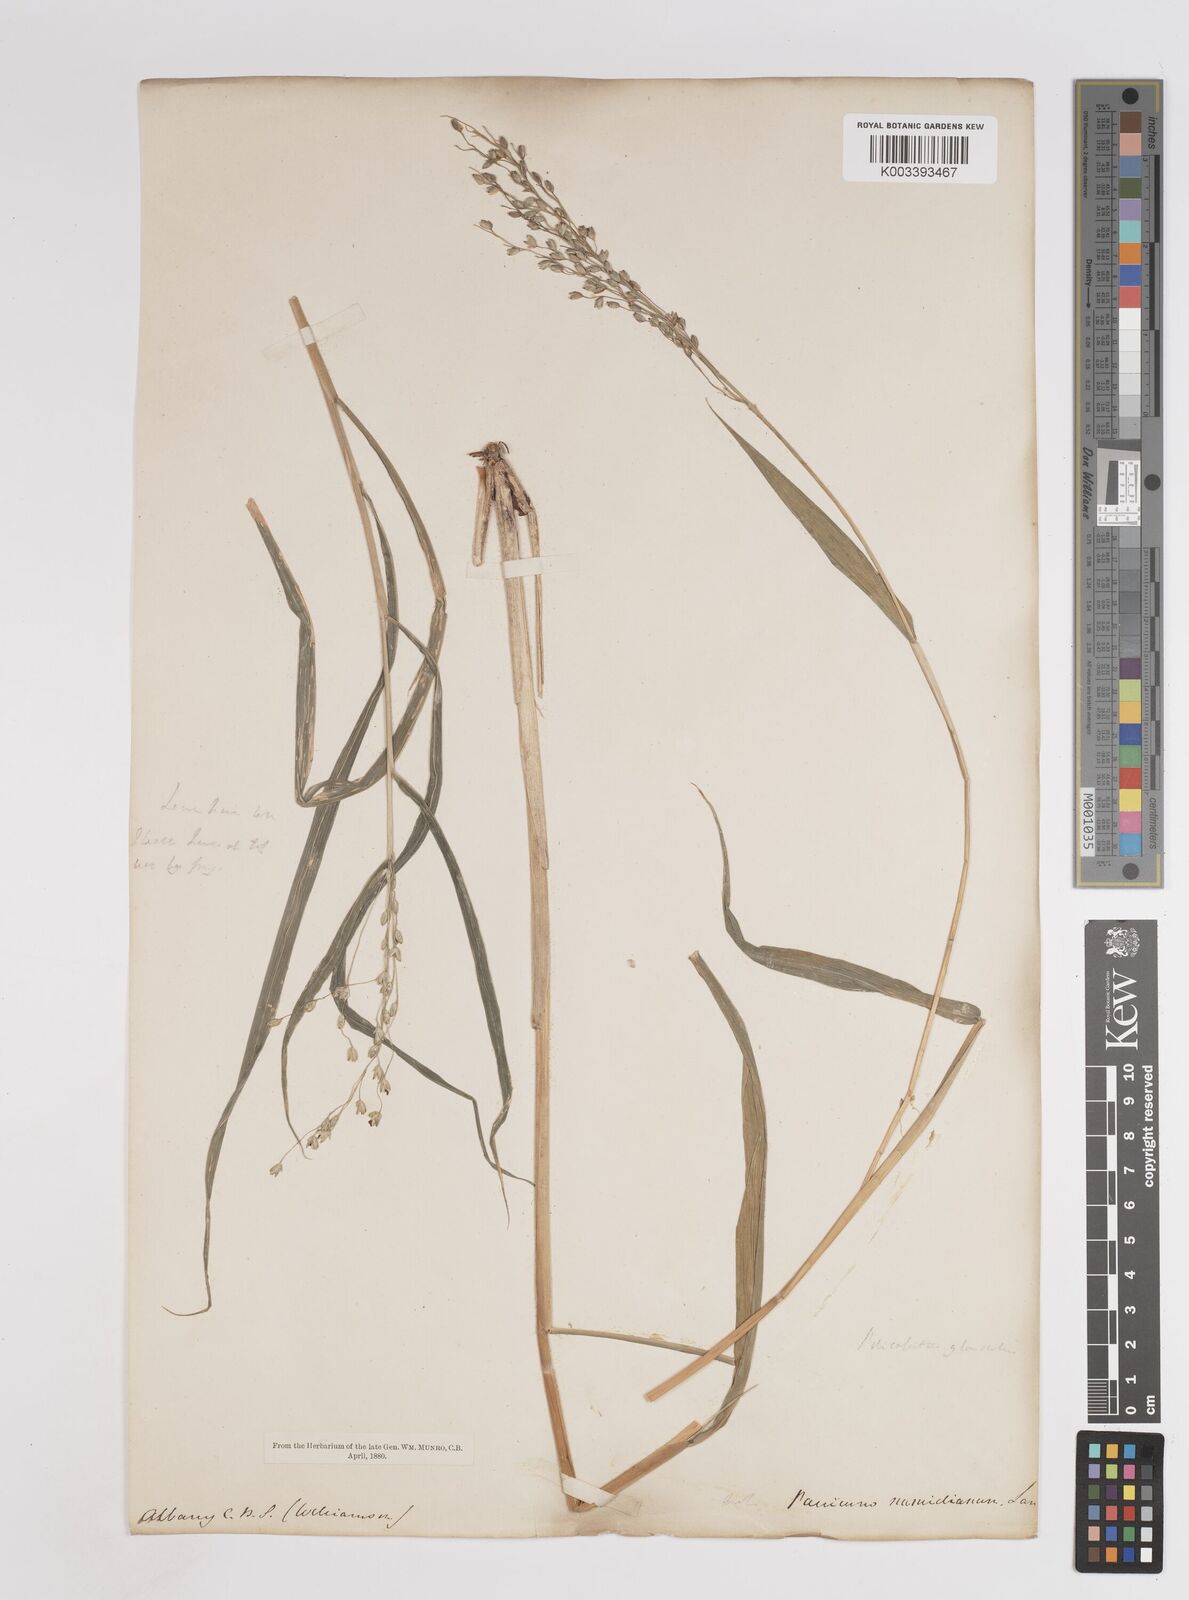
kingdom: Plantae
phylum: Tracheophyta
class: Liliopsida
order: Poales
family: Poaceae
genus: Panicum
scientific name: Panicum deustum
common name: Reed panicum
